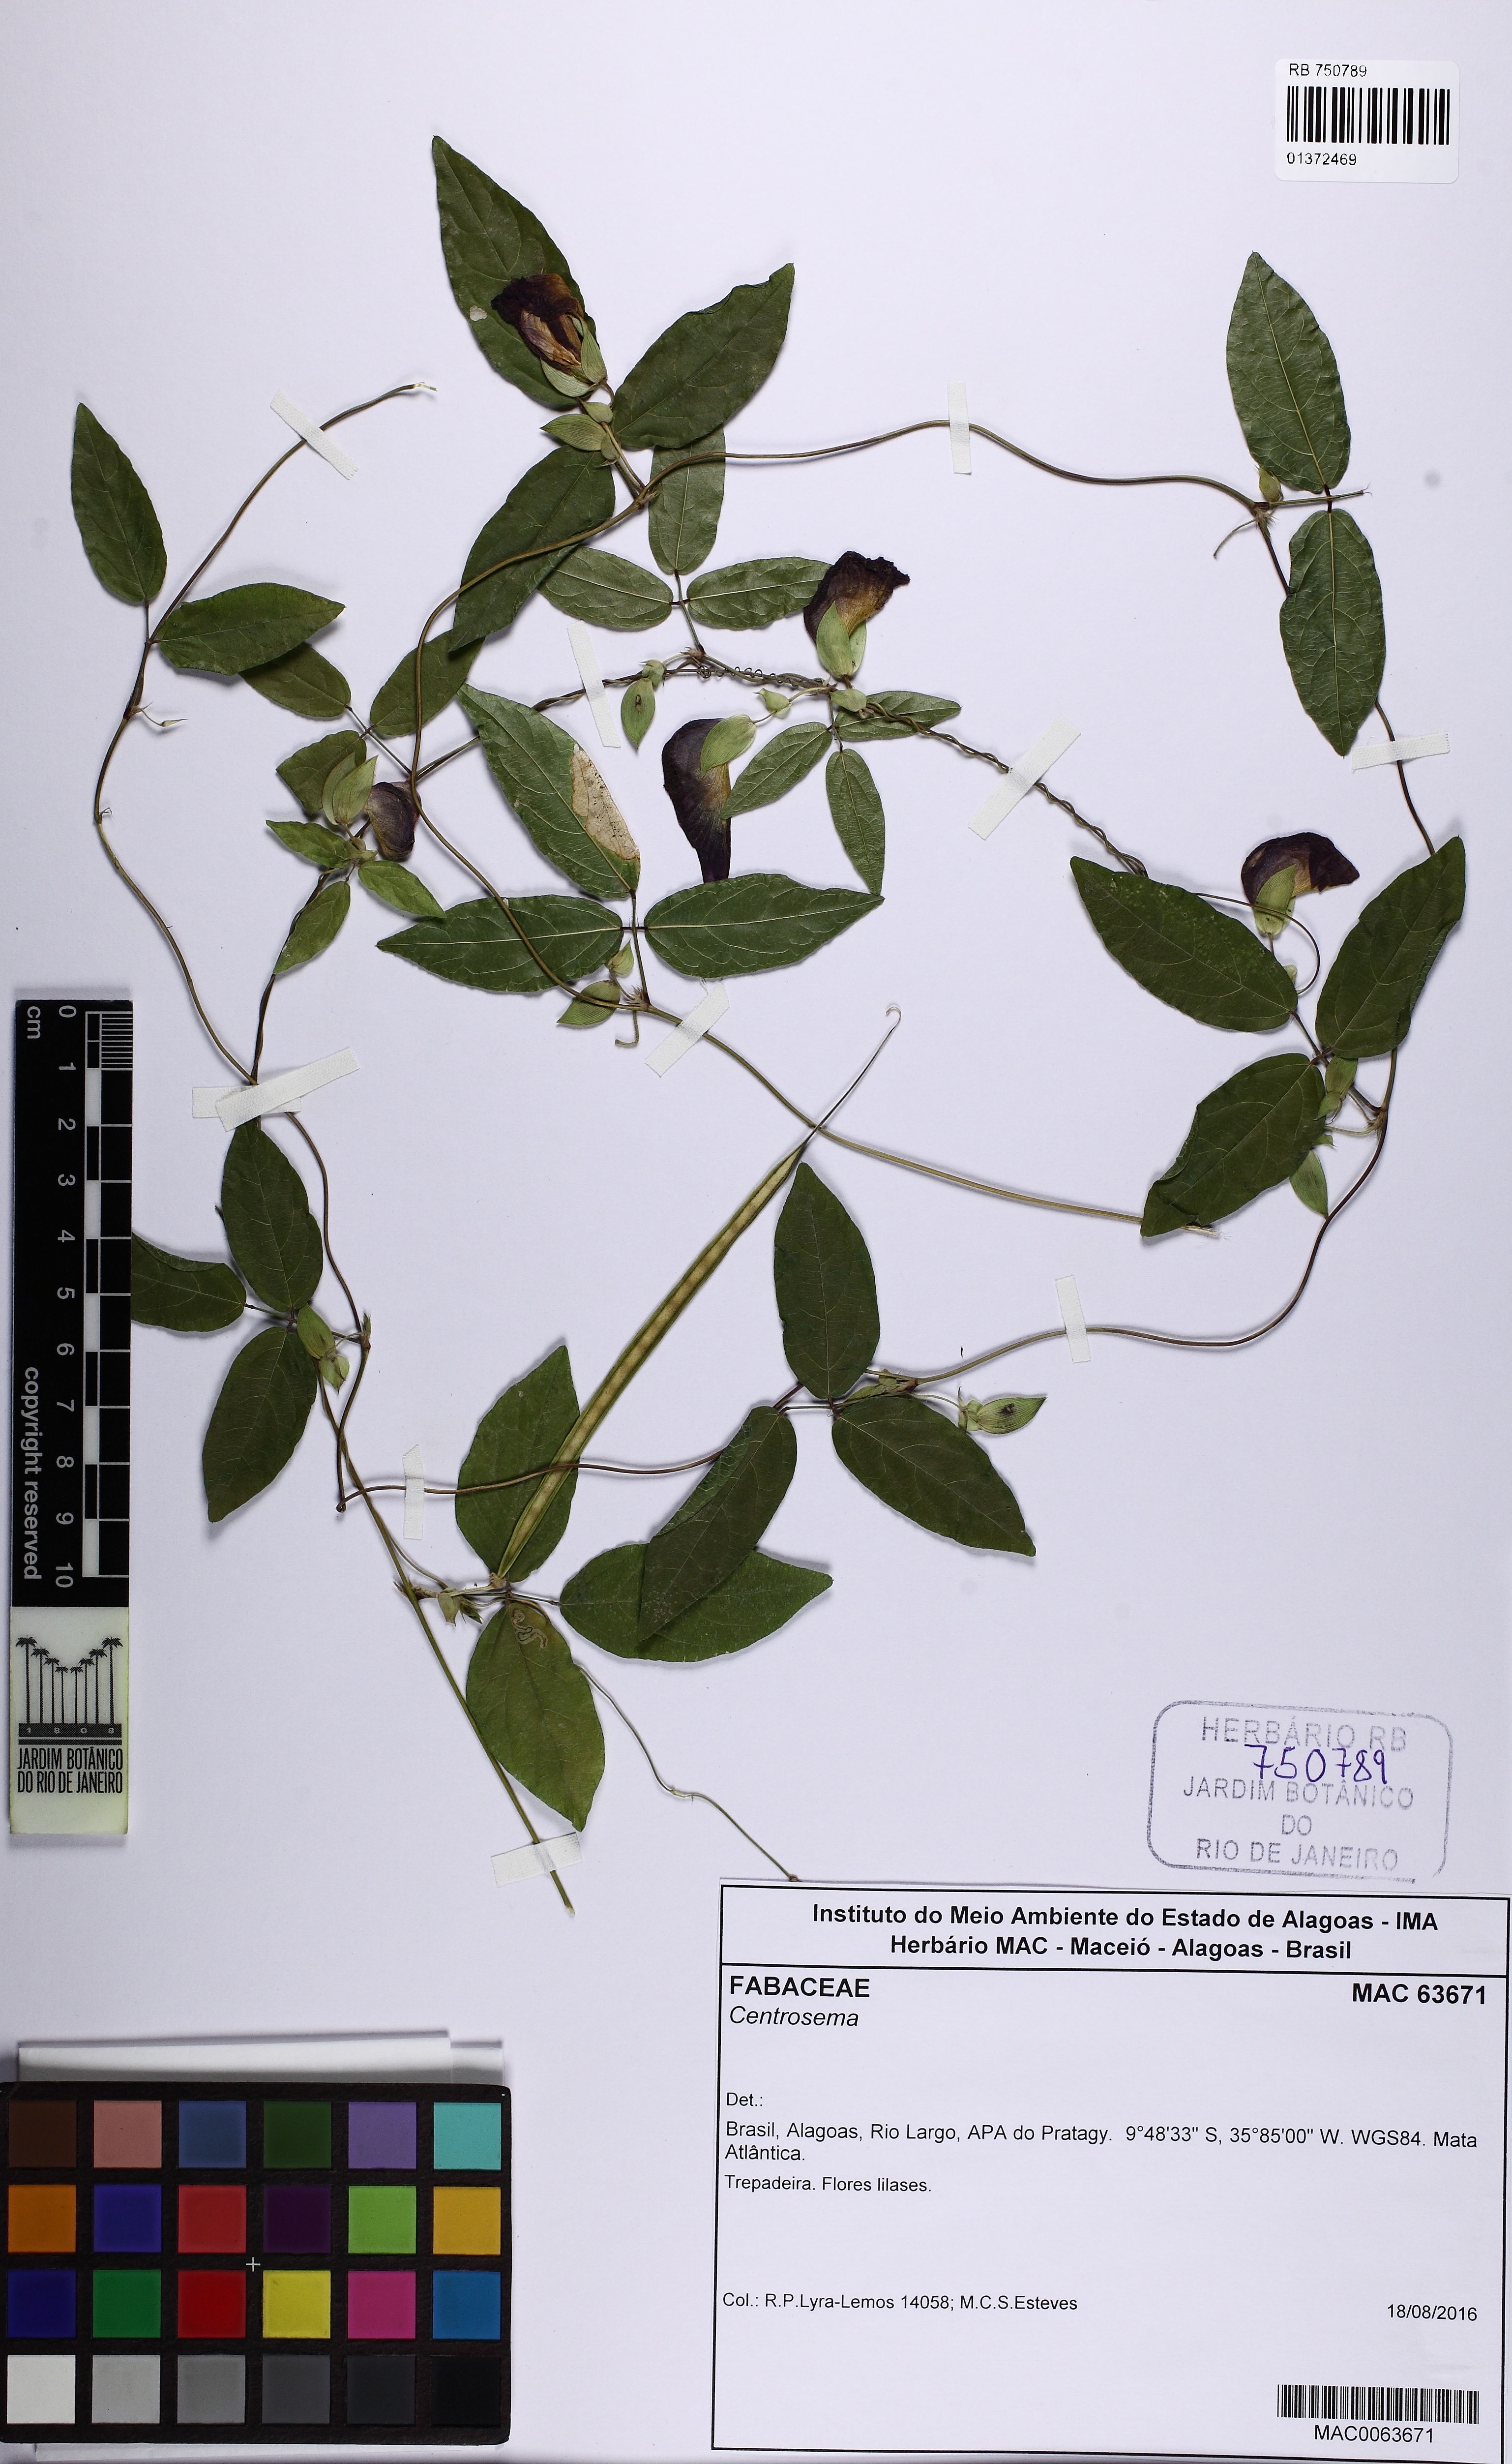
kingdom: Plantae
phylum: Tracheophyta
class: Magnoliopsida
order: Fabales
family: Fabaceae
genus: Centrosema
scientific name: Centrosema
